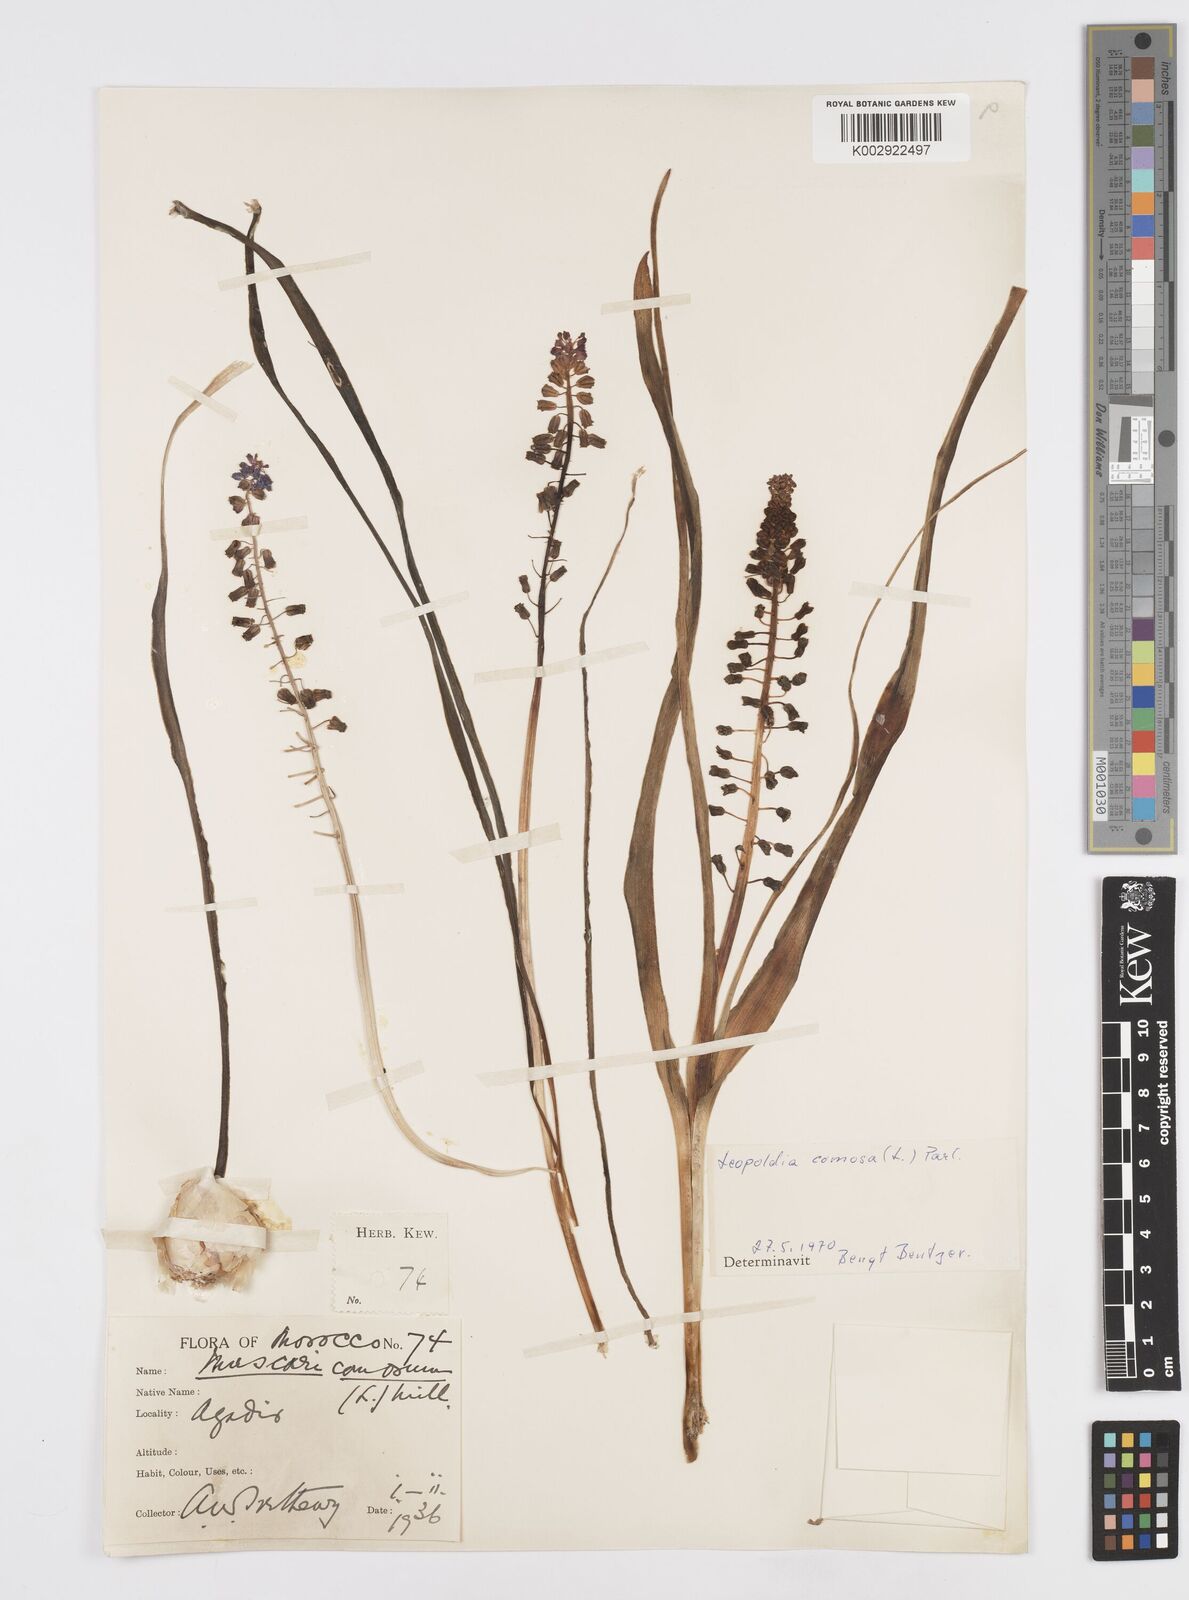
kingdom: Plantae
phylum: Tracheophyta
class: Liliopsida
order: Asparagales
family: Asparagaceae
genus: Muscari
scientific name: Muscari comosum
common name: Tassel hyacinth
